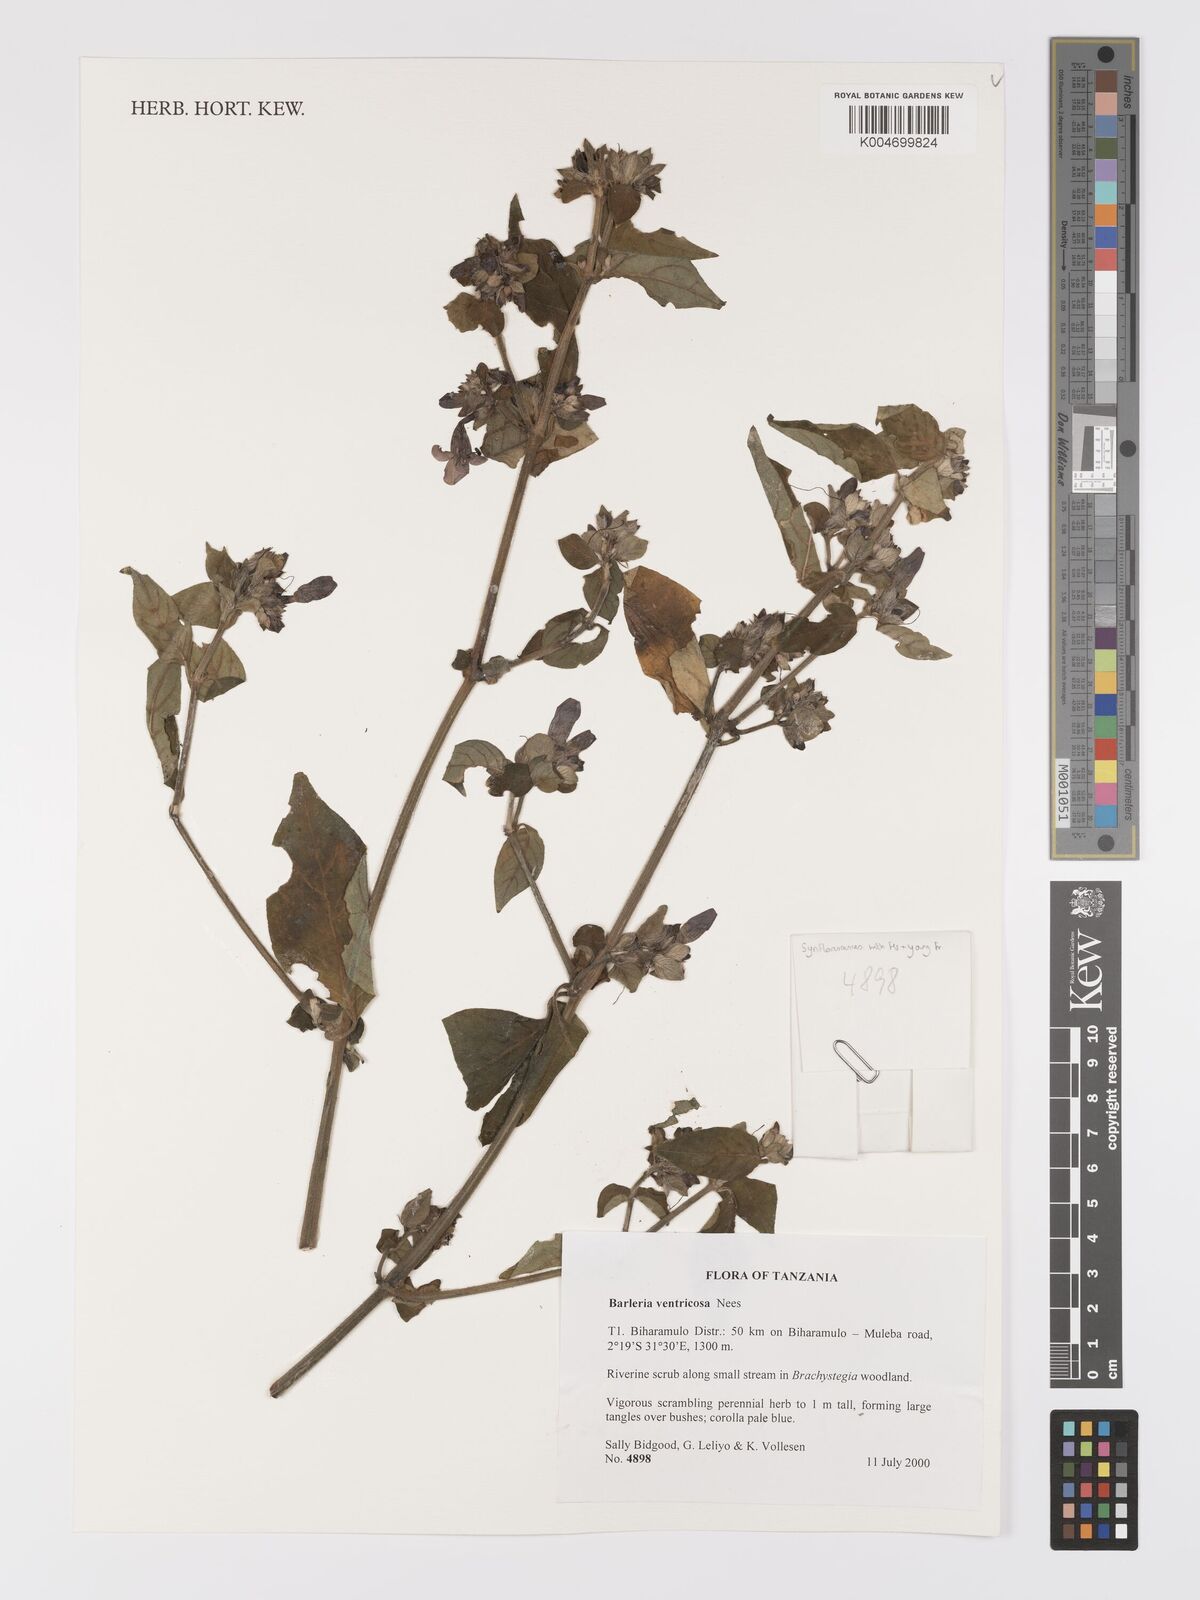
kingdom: Plantae
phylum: Tracheophyta
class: Magnoliopsida
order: Lamiales
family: Acanthaceae
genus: Barleria
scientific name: Barleria ventricosa
